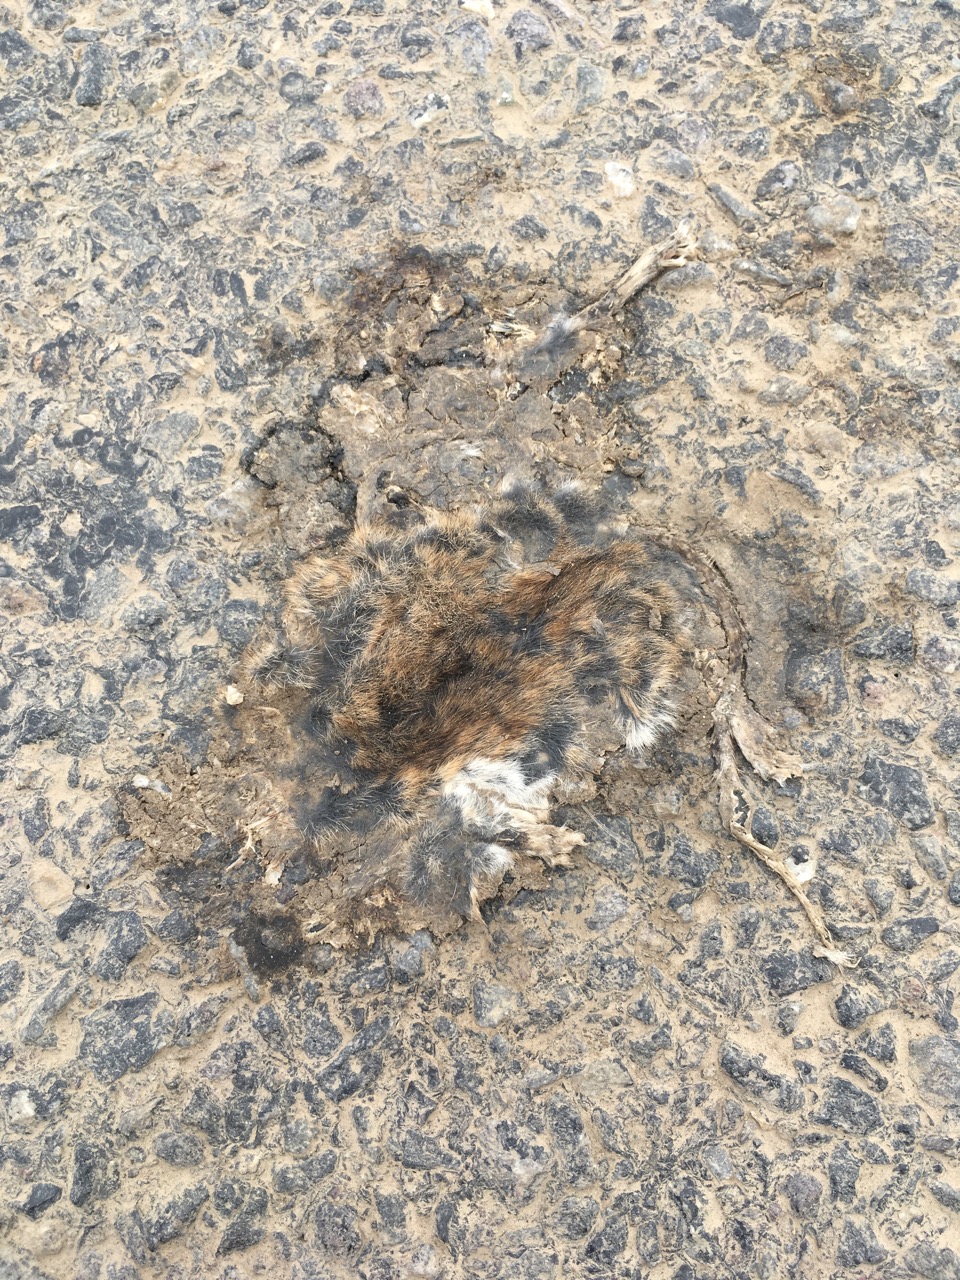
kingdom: Animalia
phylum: Chordata
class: Mammalia
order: Rodentia
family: Muridae
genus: Apodemus
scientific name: Apodemus
